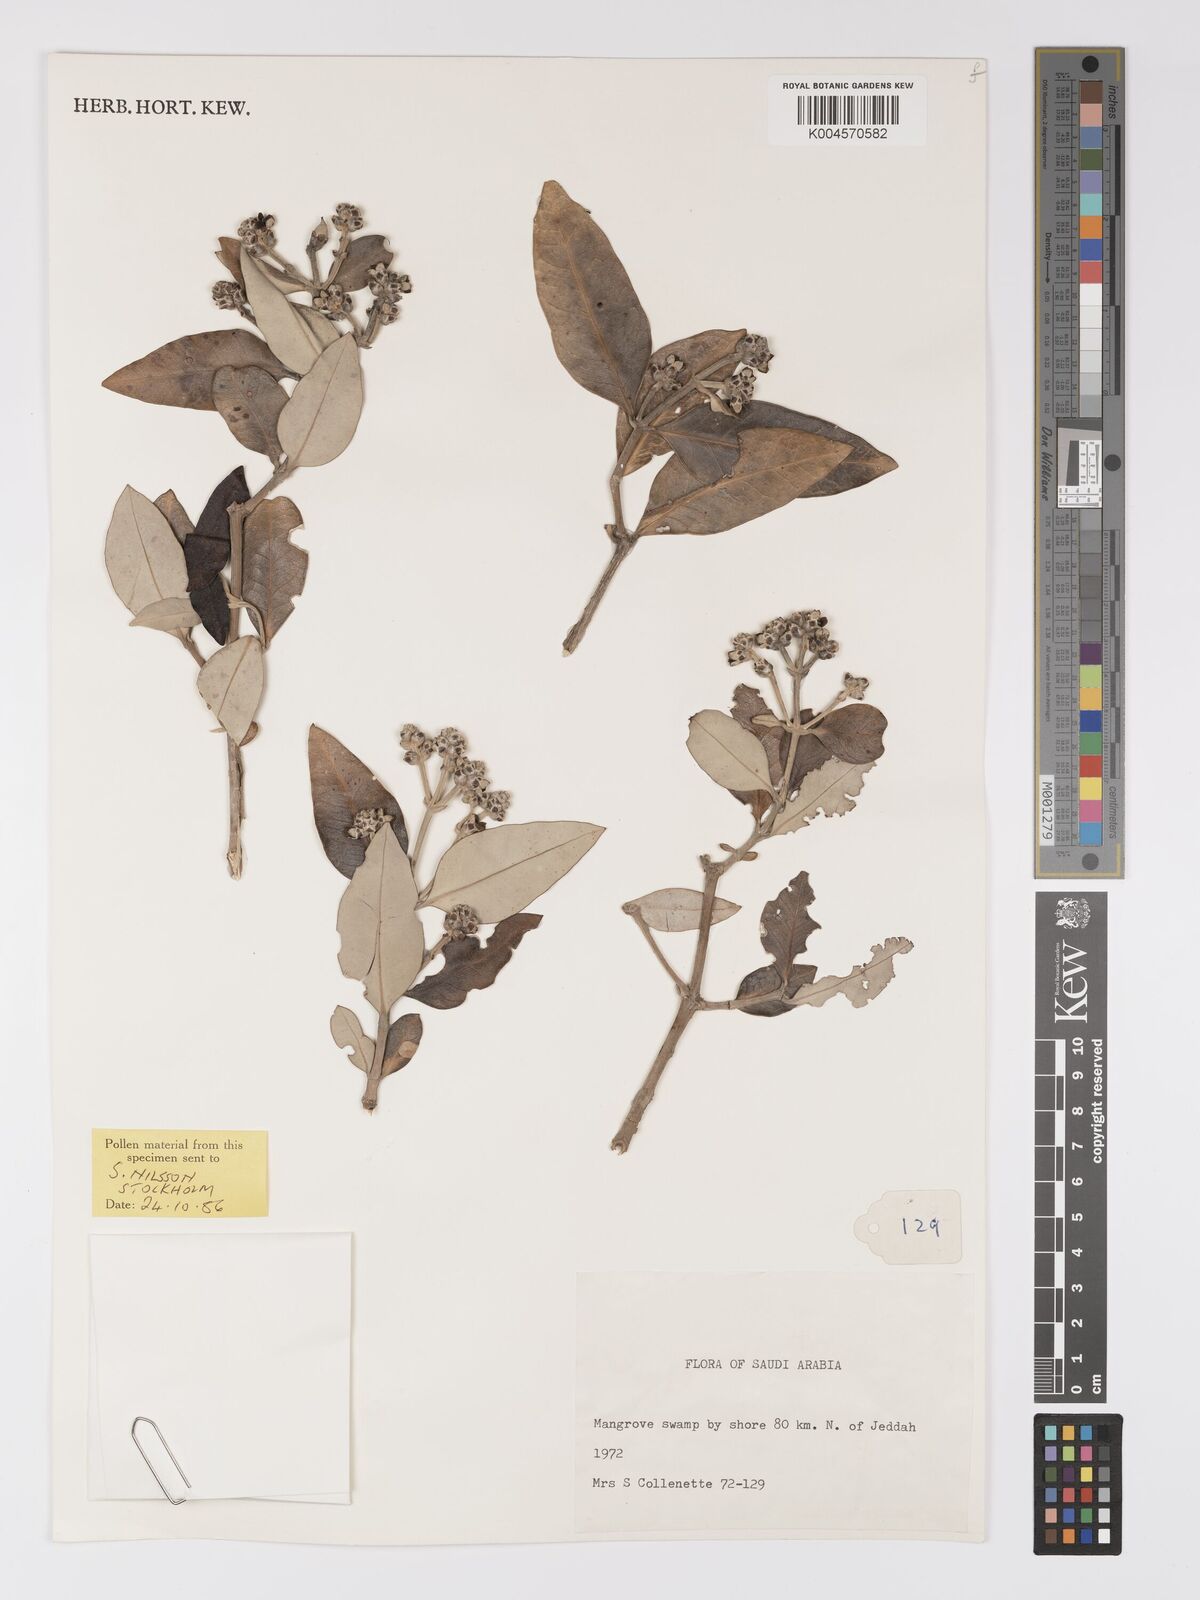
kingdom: Plantae
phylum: Tracheophyta
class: Magnoliopsida
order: Lamiales
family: Acanthaceae
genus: Avicennia
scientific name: Avicennia marina
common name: Gray mangrove
